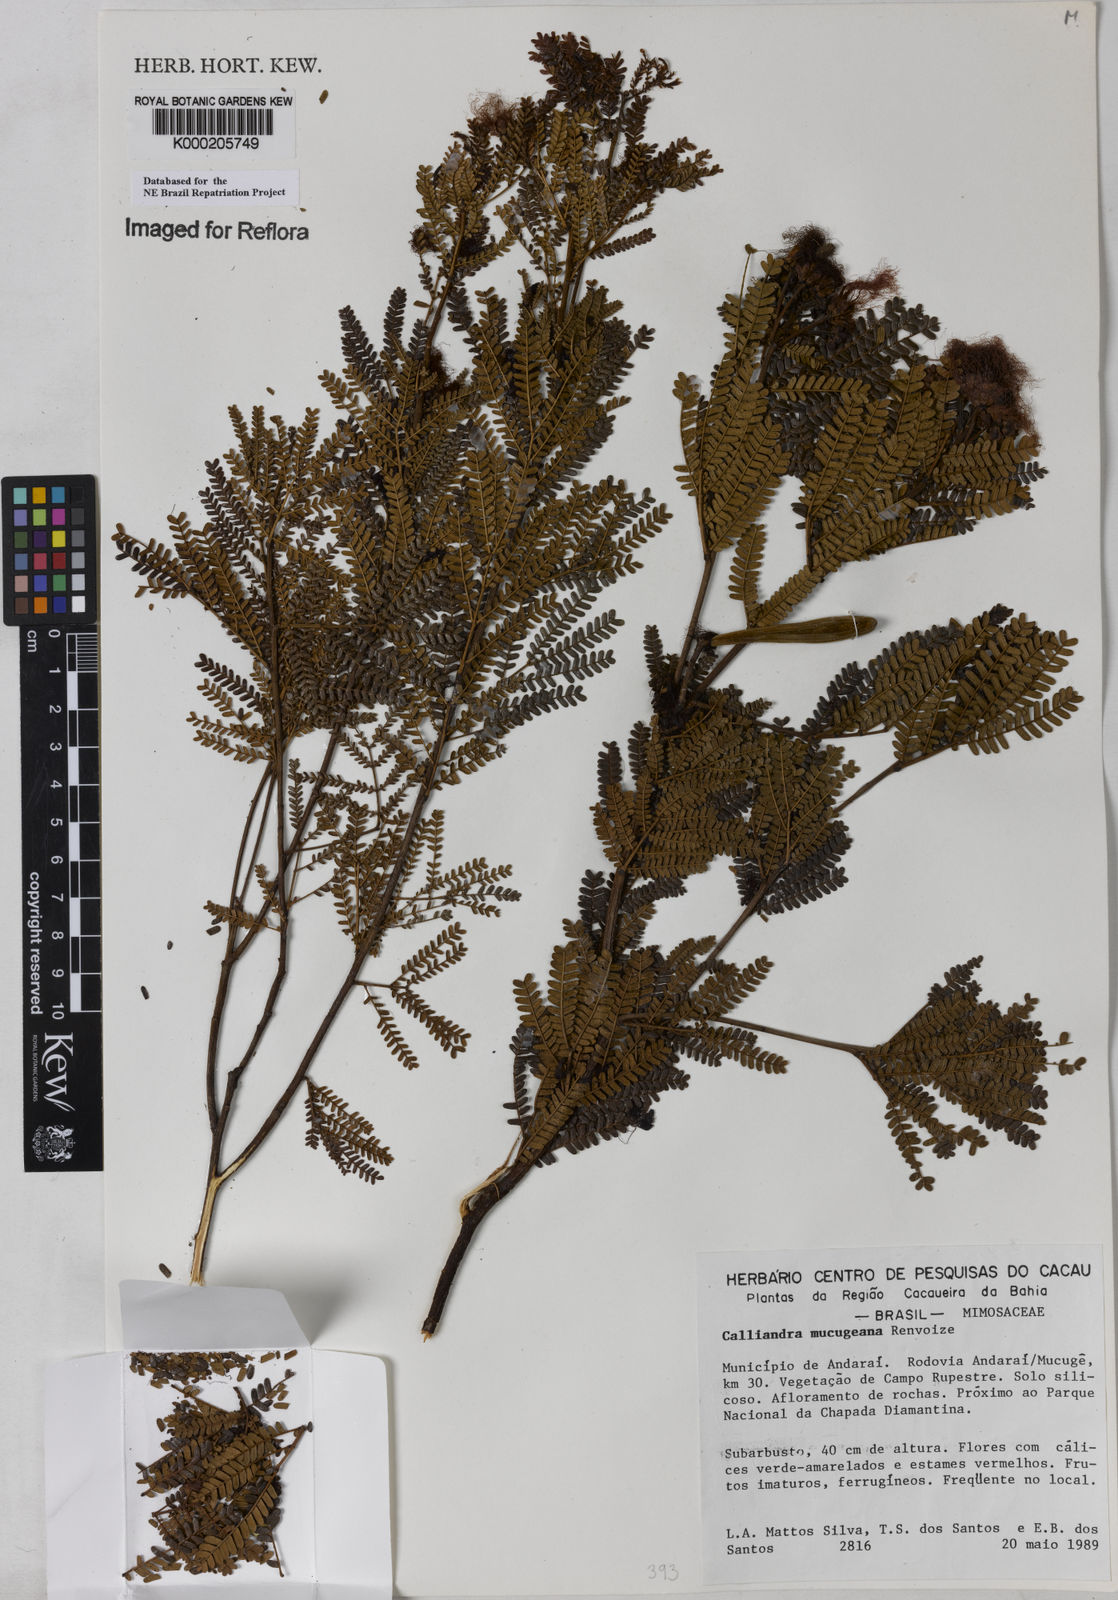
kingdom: Plantae
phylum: Tracheophyta
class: Magnoliopsida
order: Fabales
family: Fabaceae
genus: Calliandra
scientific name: Calliandra mucugeana
